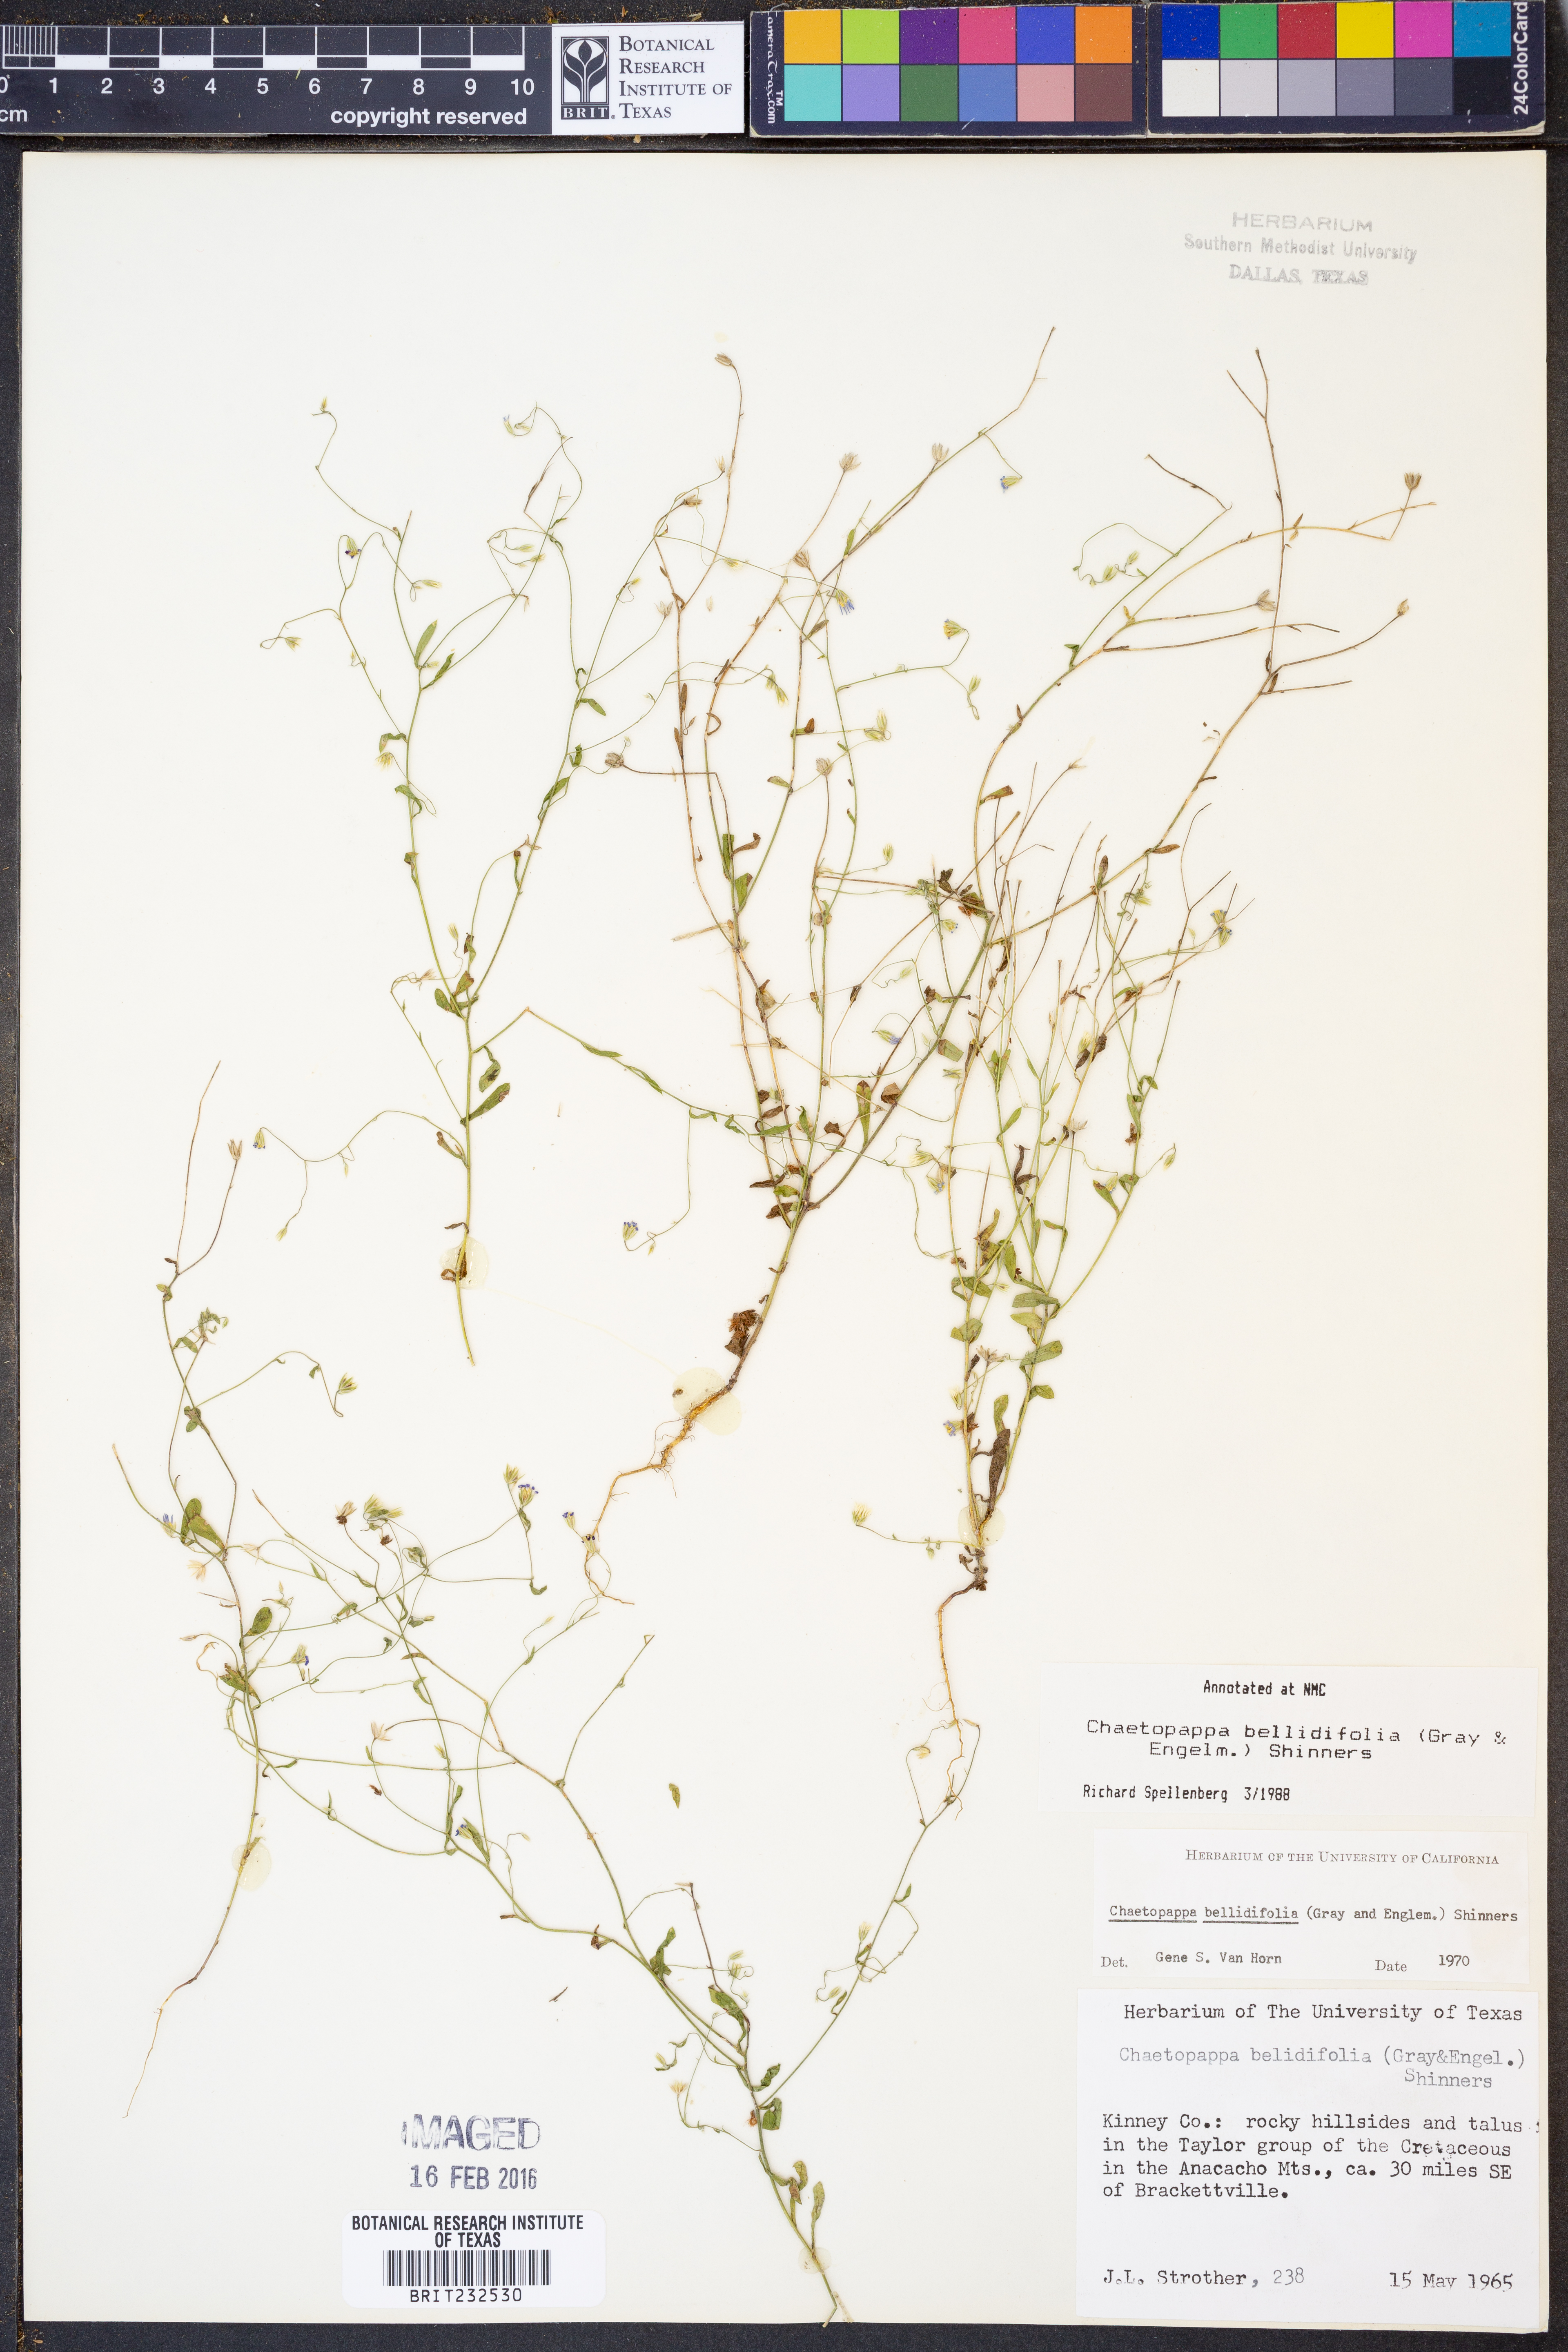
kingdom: Plantae
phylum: Tracheophyta
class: Magnoliopsida
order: Asterales
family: Asteraceae
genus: Chaetopappa
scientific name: Chaetopappa bellidifolia
